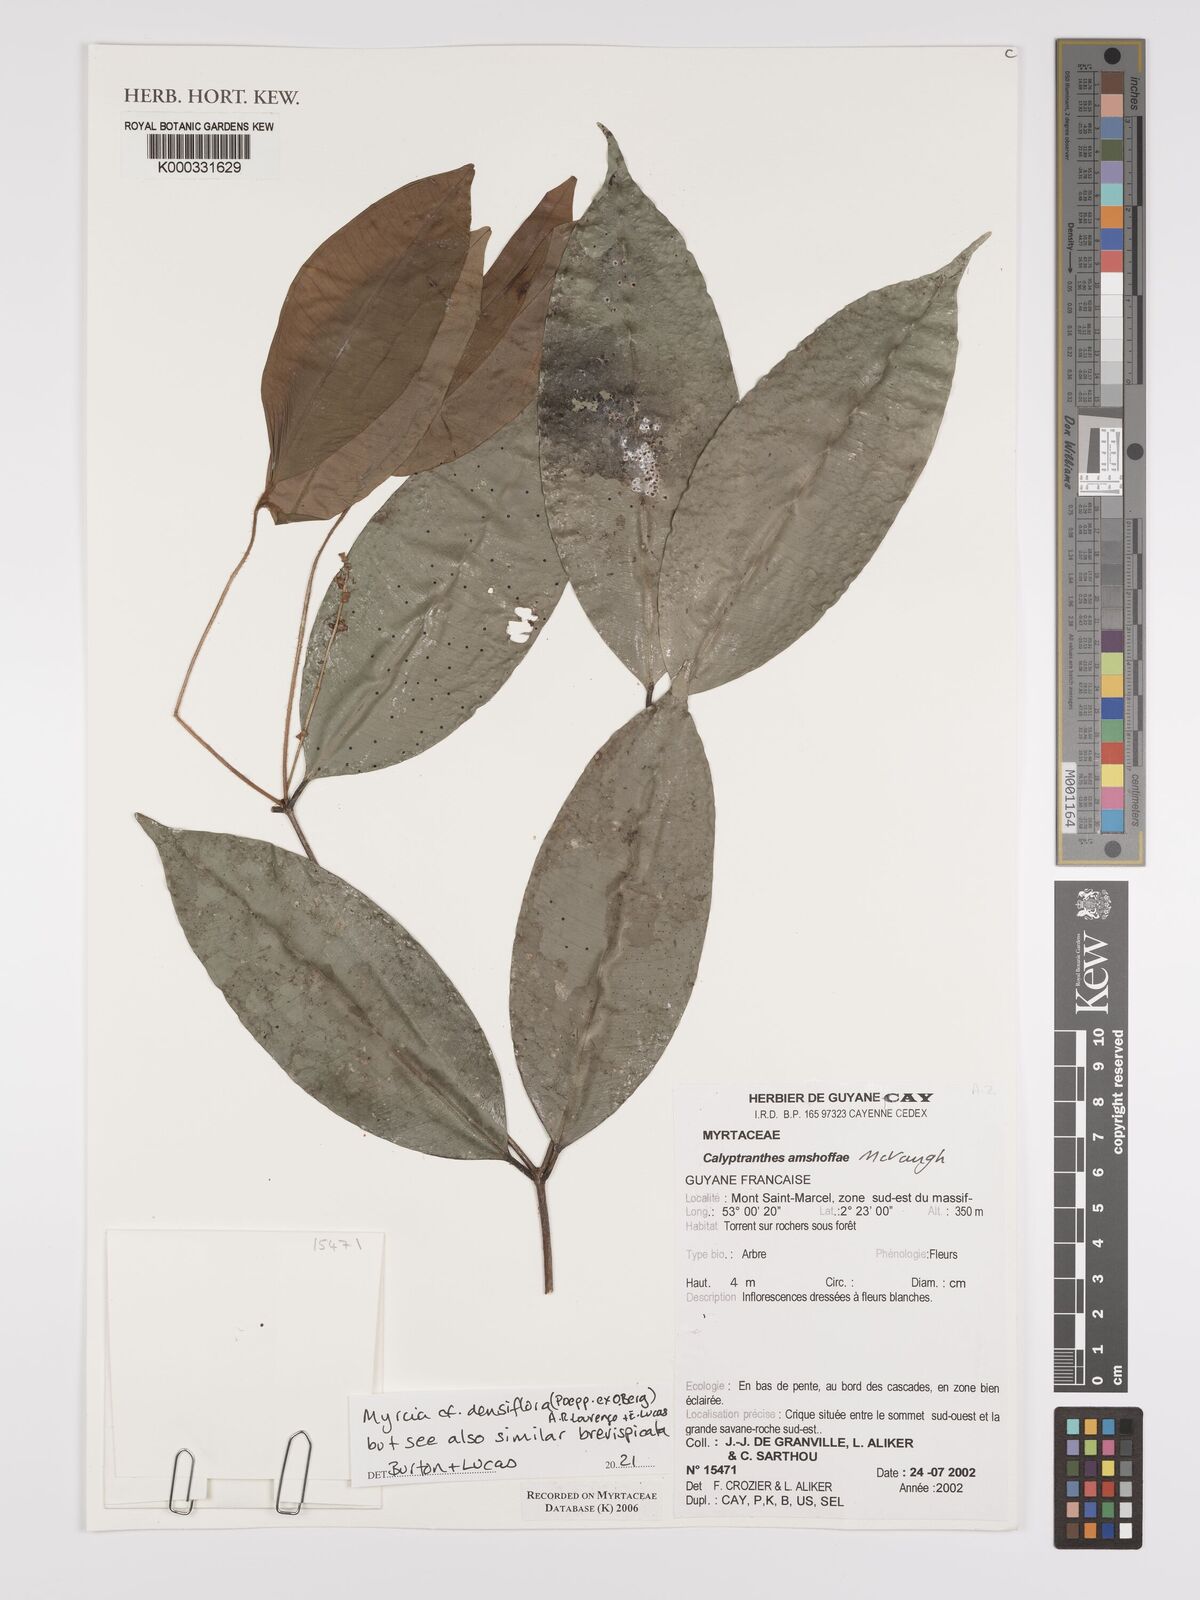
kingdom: Plantae
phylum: Tracheophyta
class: Magnoliopsida
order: Myrtales
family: Myrtaceae
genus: Myrcia
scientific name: Myrcia amshoffae
